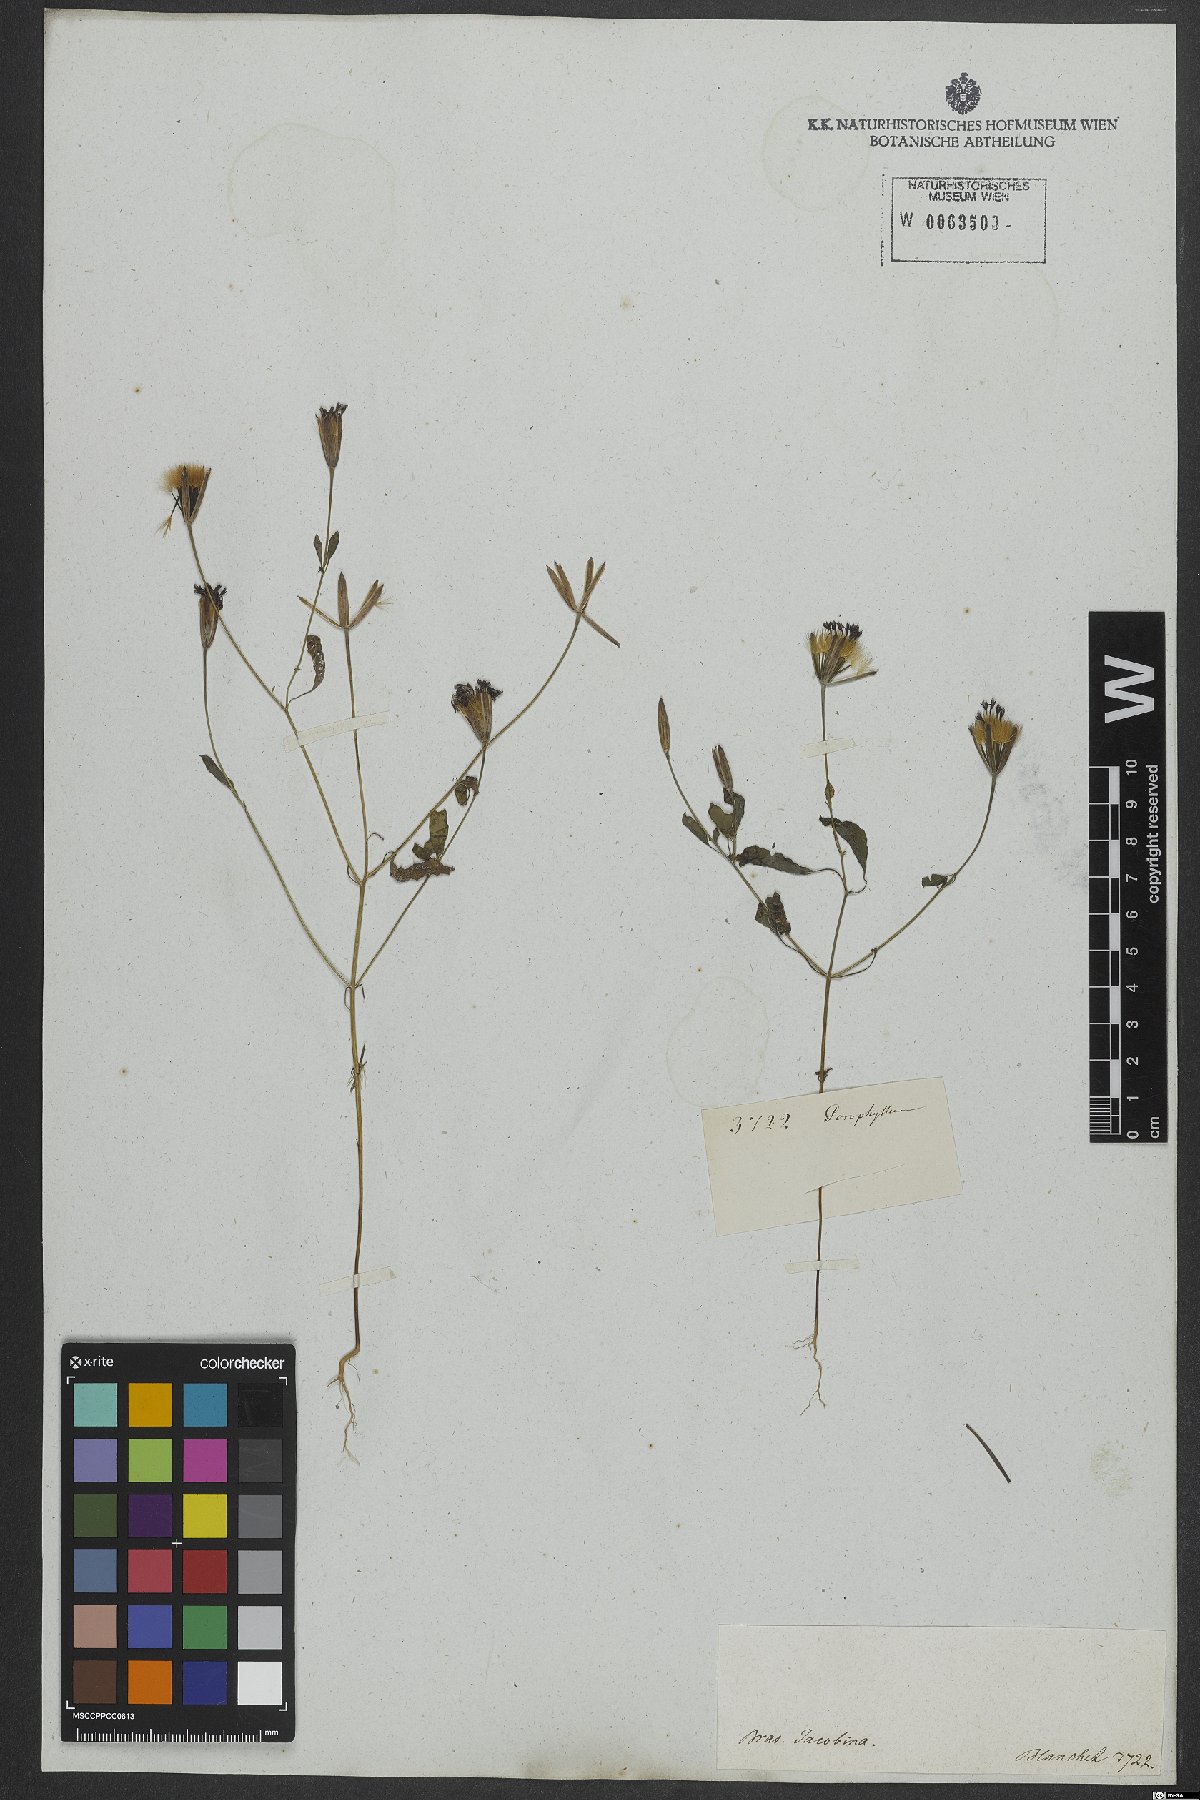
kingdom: Plantae
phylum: Tracheophyta
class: Magnoliopsida
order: Asterales
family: Asteraceae
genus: Porophyllum
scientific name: Porophyllum ruderale
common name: Yerba porosa
